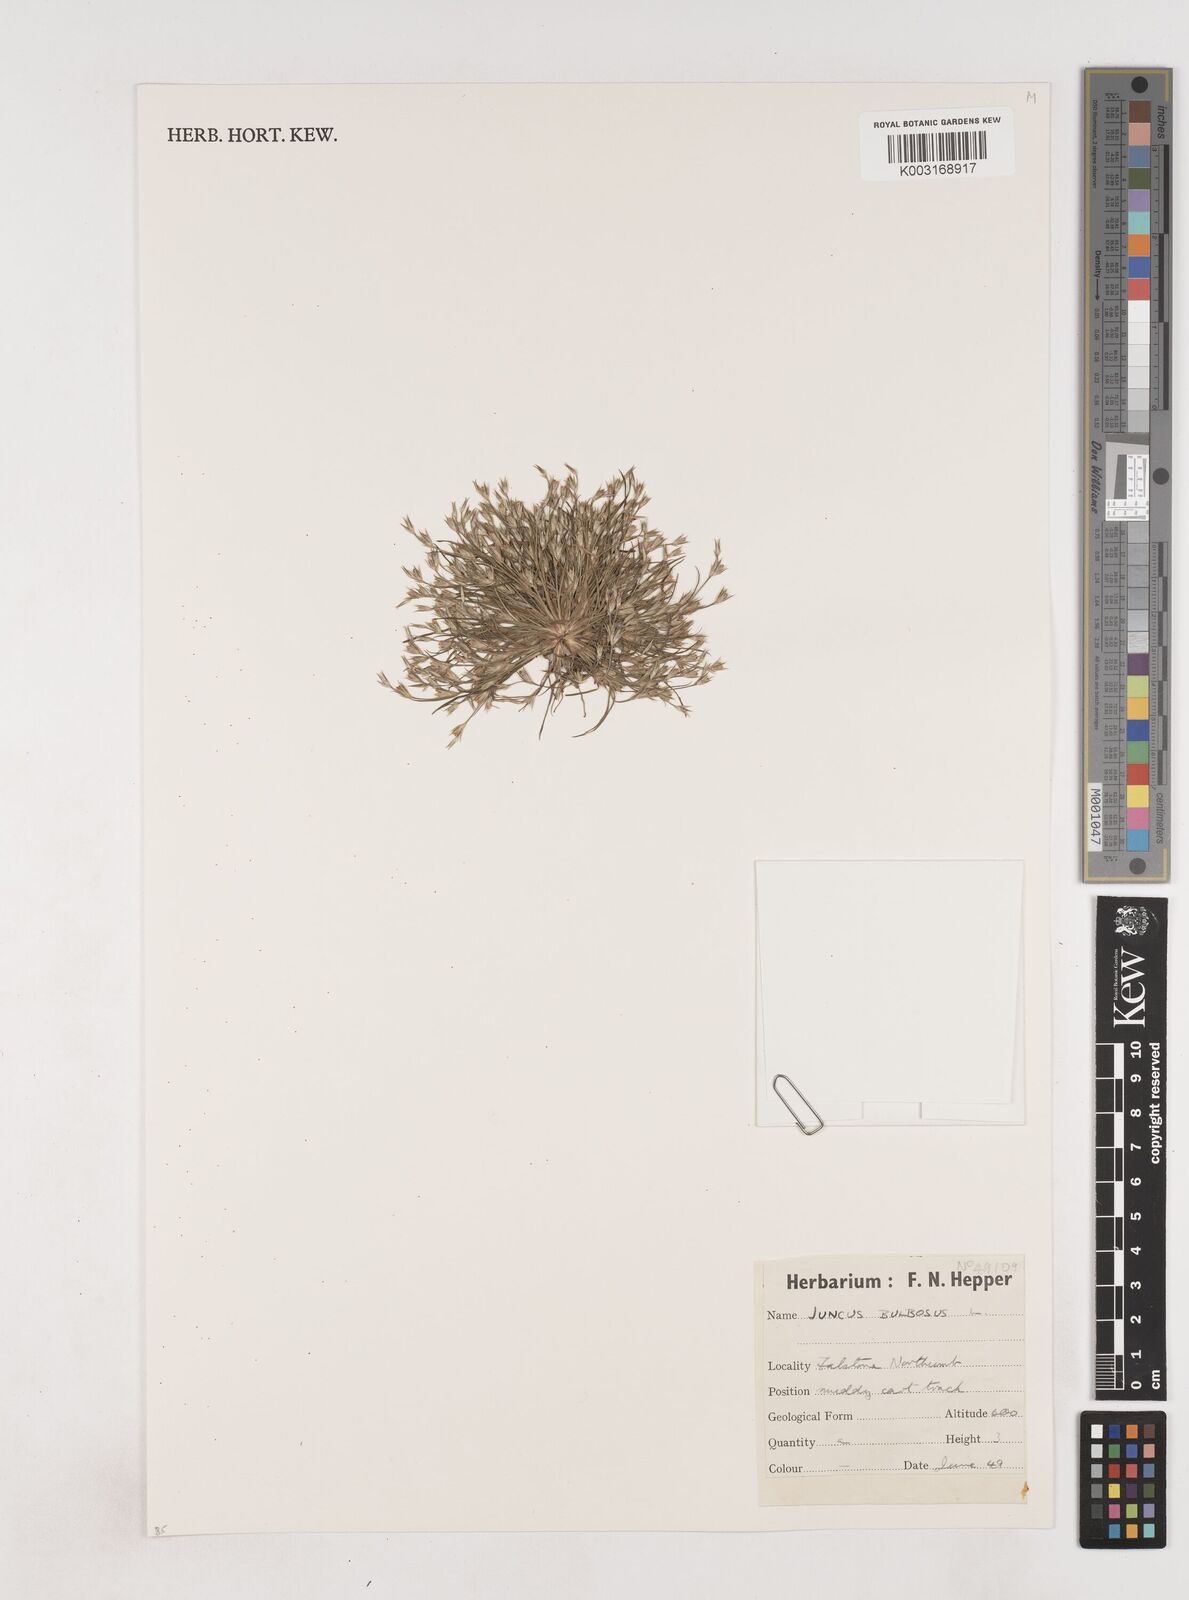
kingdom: Plantae
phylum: Tracheophyta
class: Liliopsida
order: Poales
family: Juncaceae
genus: Juncus
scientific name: Juncus bulbosus
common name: Bulbous rush
